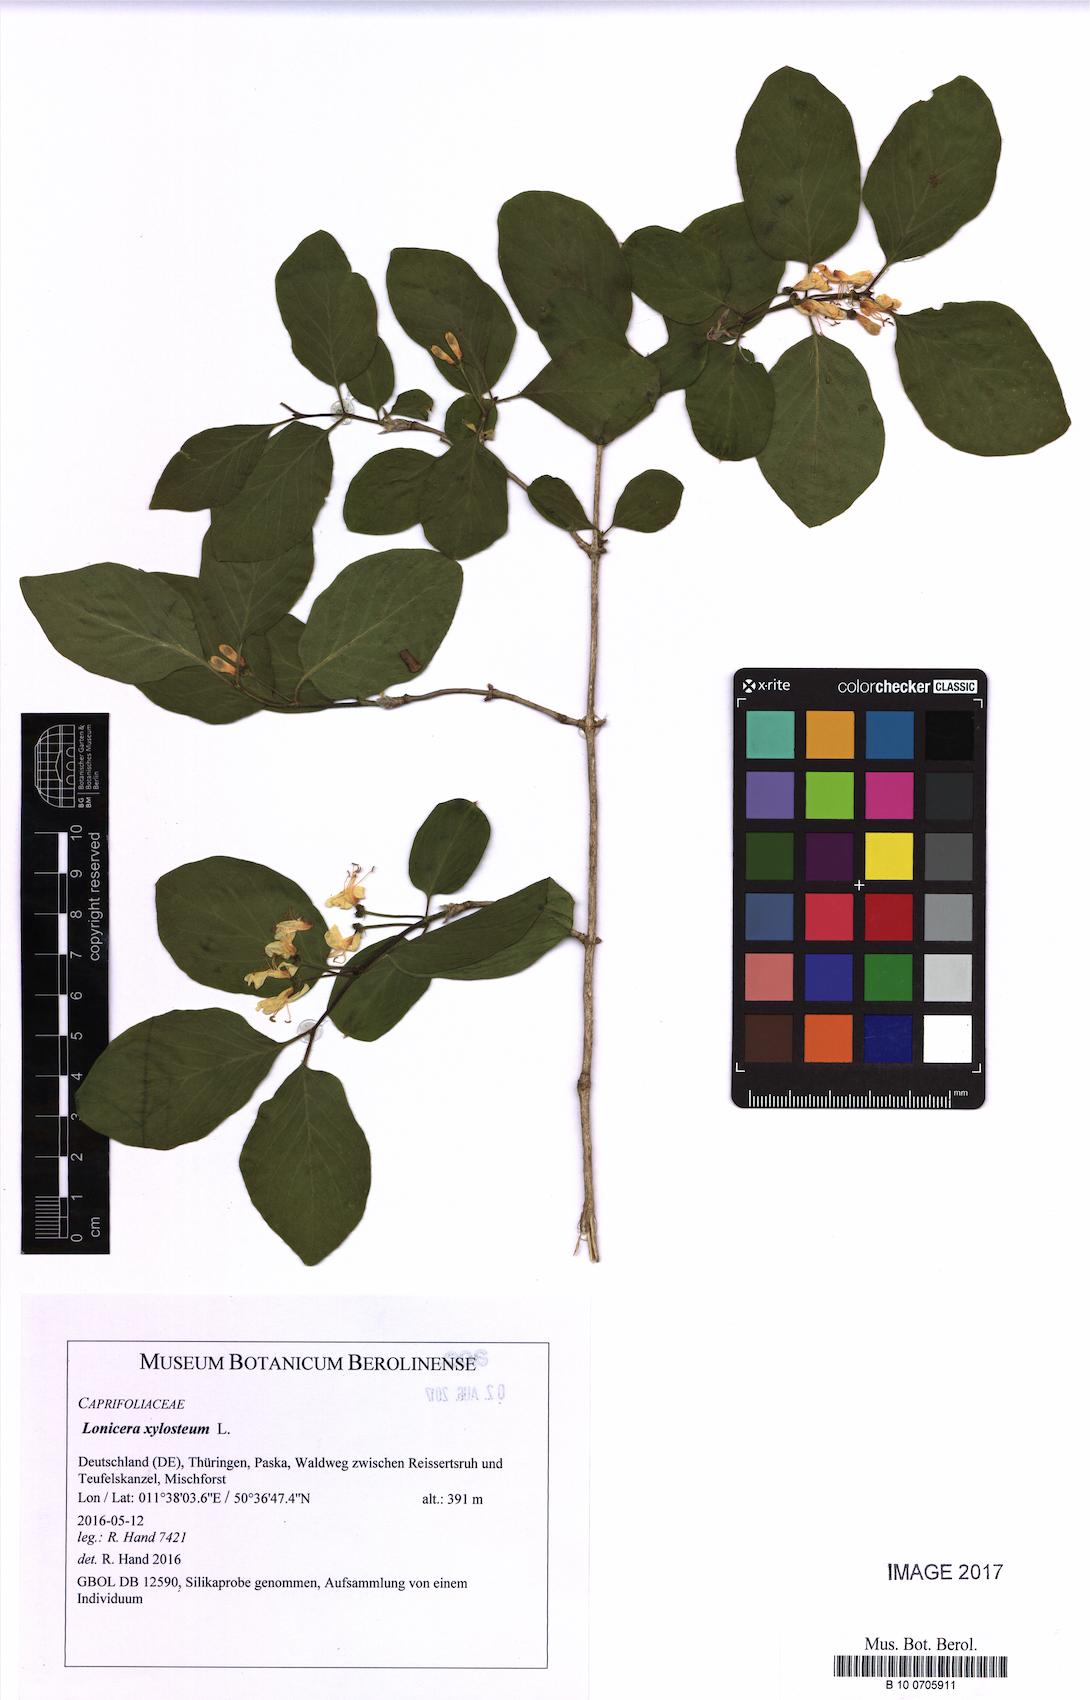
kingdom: Plantae
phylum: Tracheophyta
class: Magnoliopsida
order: Dipsacales
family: Caprifoliaceae
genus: Lonicera
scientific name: Lonicera xylosteum
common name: Fly honeysuckle
